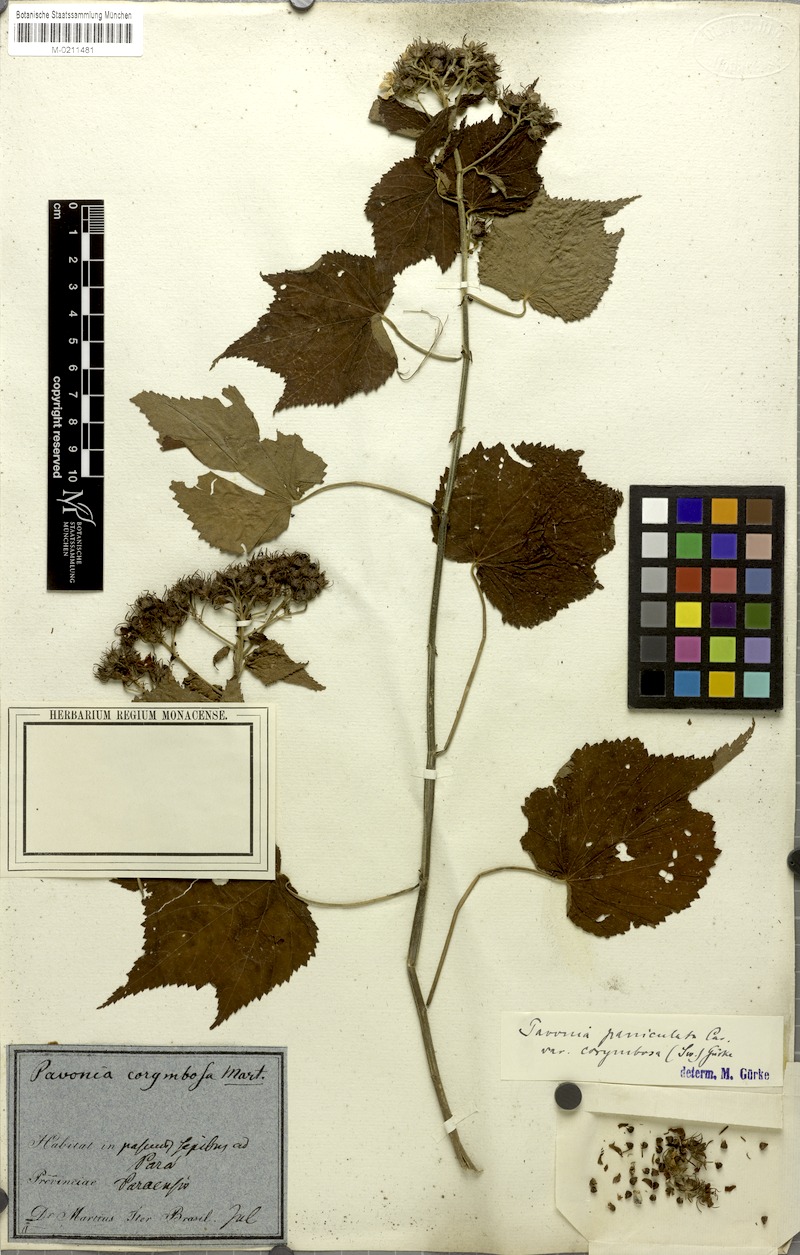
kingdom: Plantae
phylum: Tracheophyta
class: Magnoliopsida
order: Malvales
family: Malvaceae
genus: Pavonia
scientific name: Pavonia paniculata
